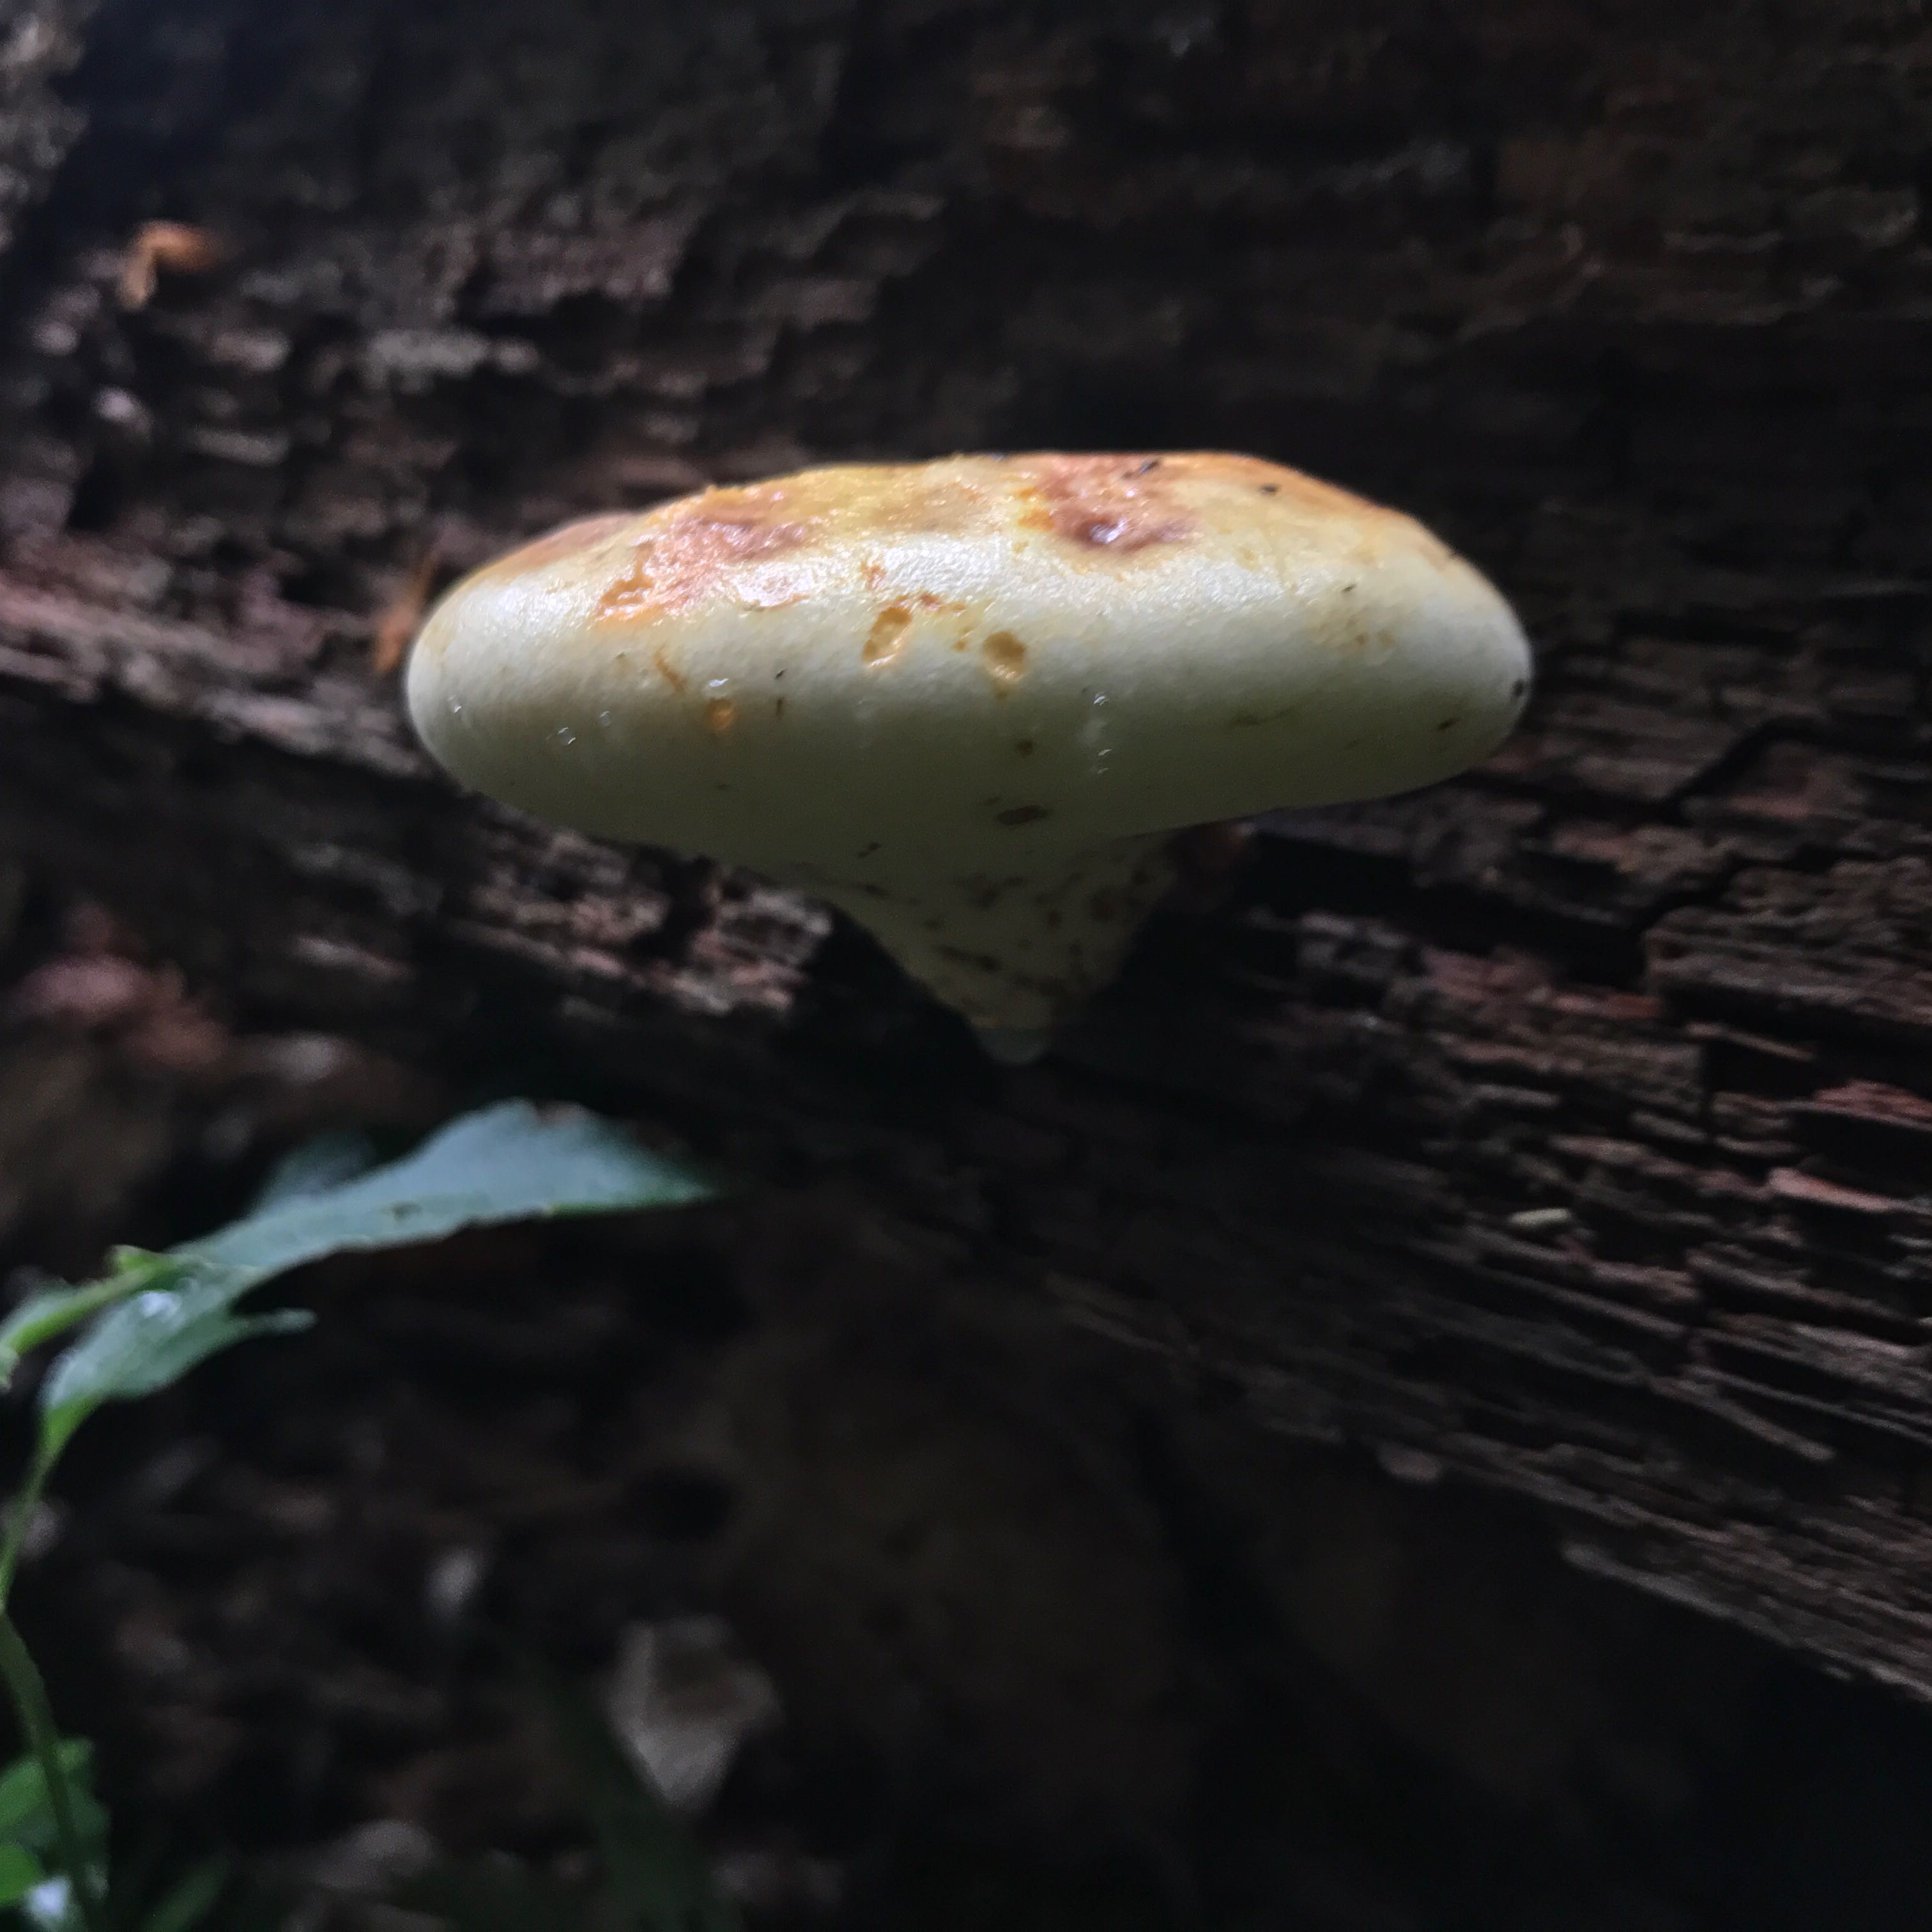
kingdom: Fungi
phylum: Basidiomycota
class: Agaricomycetes
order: Polyporales
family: Fomitopsidaceae
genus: Buglossoporus
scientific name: Buglossoporus quercinus
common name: egetunge
